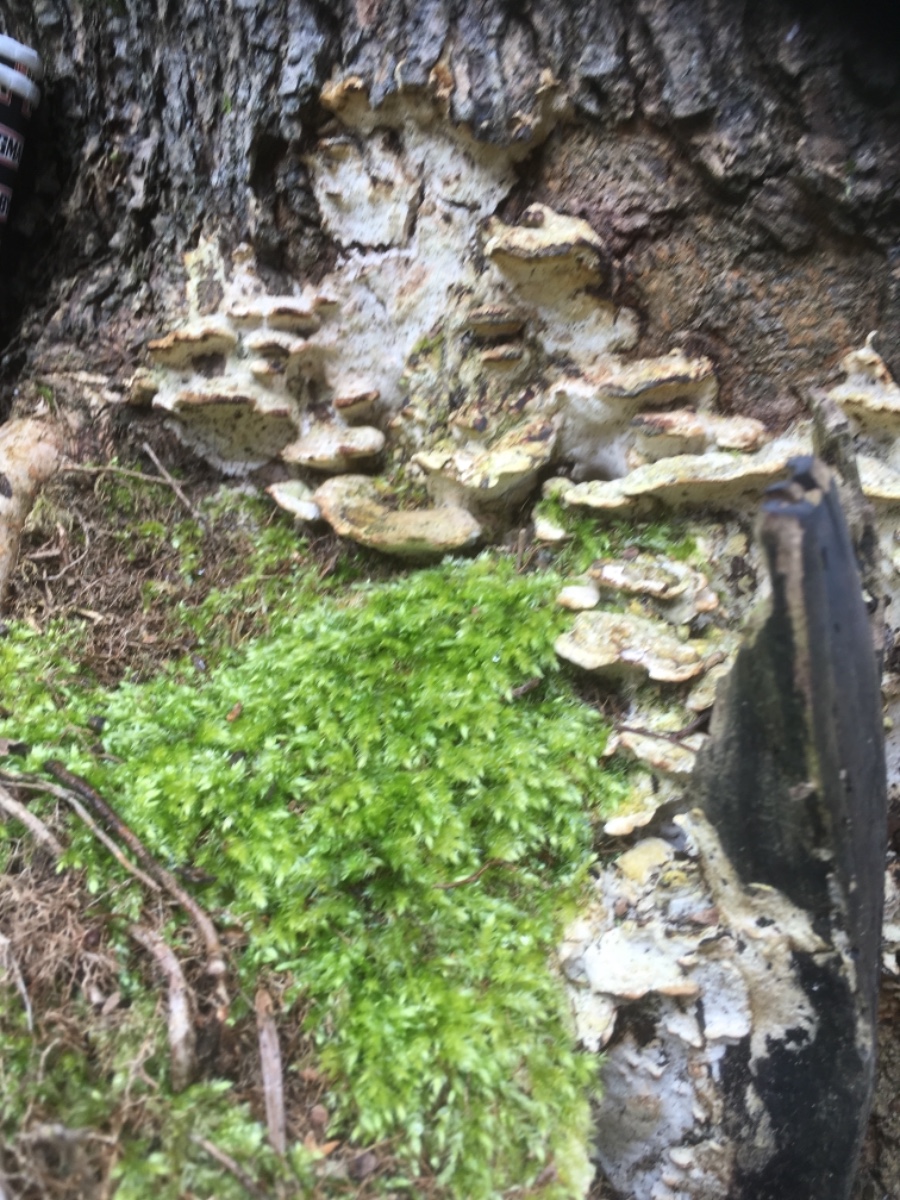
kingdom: Fungi
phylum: Basidiomycota
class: Agaricomycetes
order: Hymenochaetales
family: Oxyporaceae
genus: Oxyporus
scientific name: Oxyporus populinus
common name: sammenvokset trylleporesvamp
